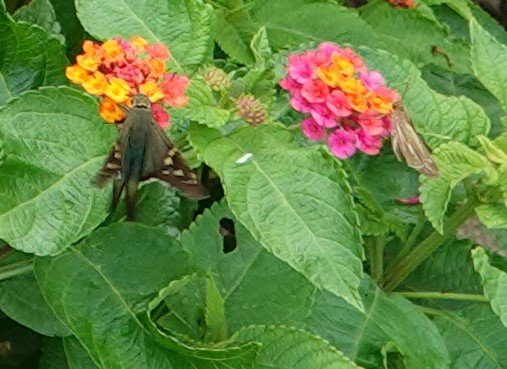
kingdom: Animalia
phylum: Arthropoda
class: Insecta
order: Lepidoptera
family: Hesperiidae
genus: Urbanus
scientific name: Urbanus proteus
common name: Long-tailed Skipper
